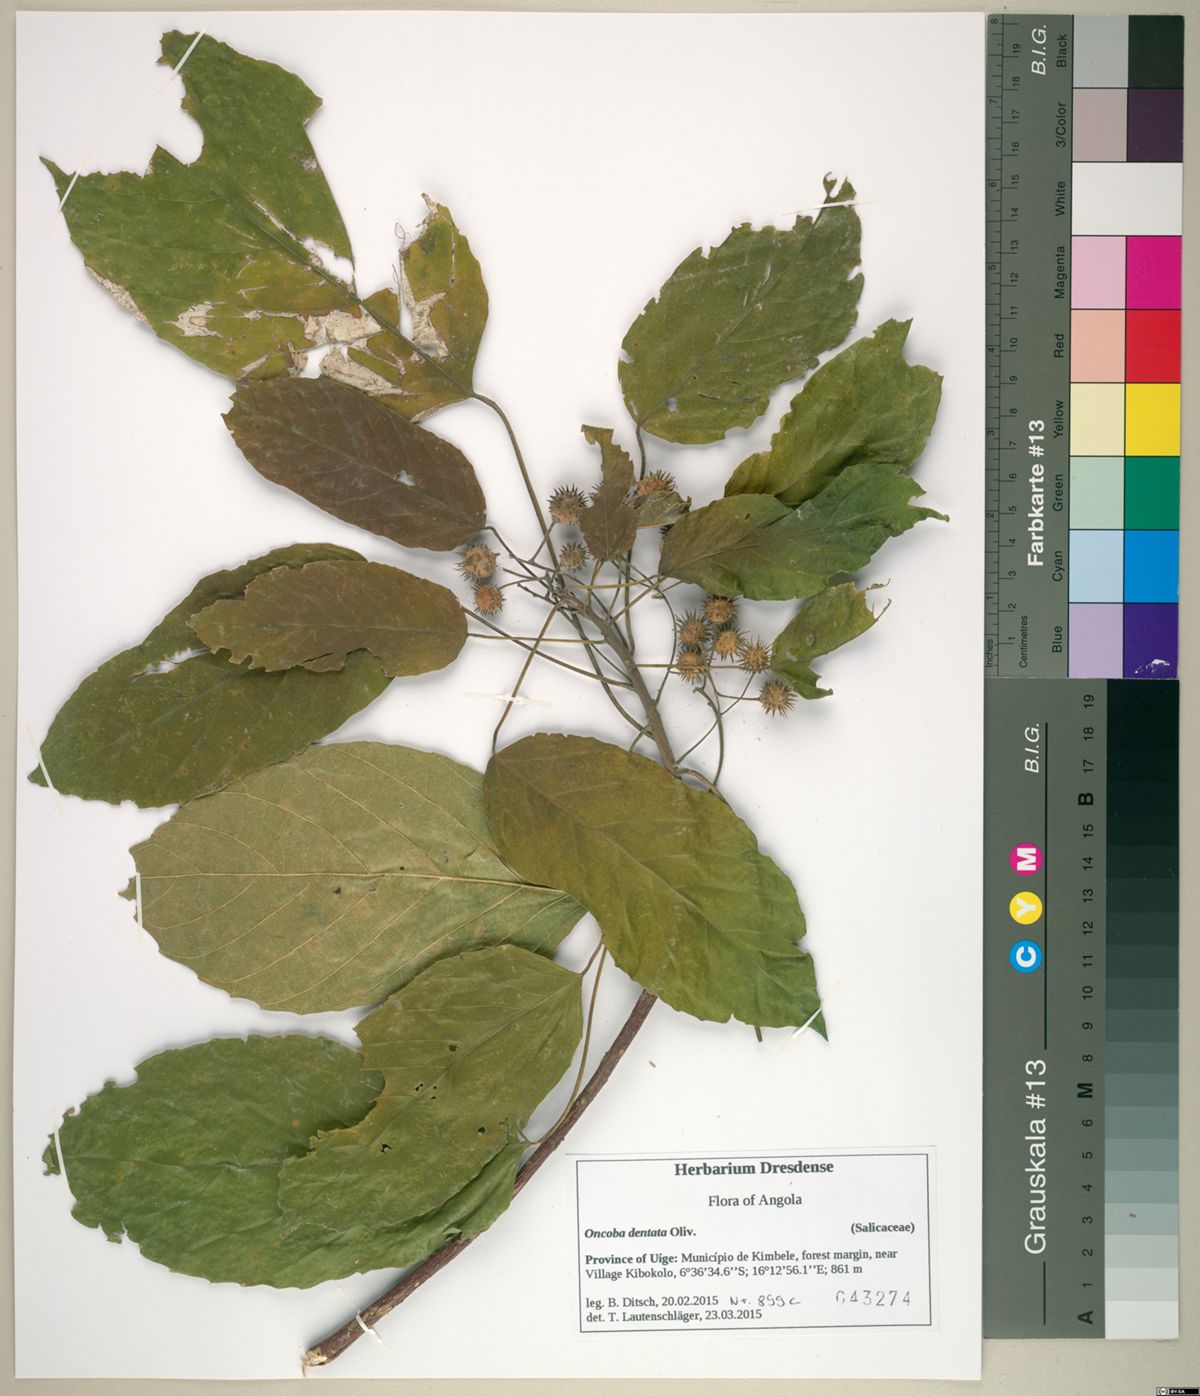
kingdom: Plantae
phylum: Tracheophyta
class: Magnoliopsida
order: Malpighiales
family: Achariaceae
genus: Lindackeria
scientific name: Lindackeria dentata
